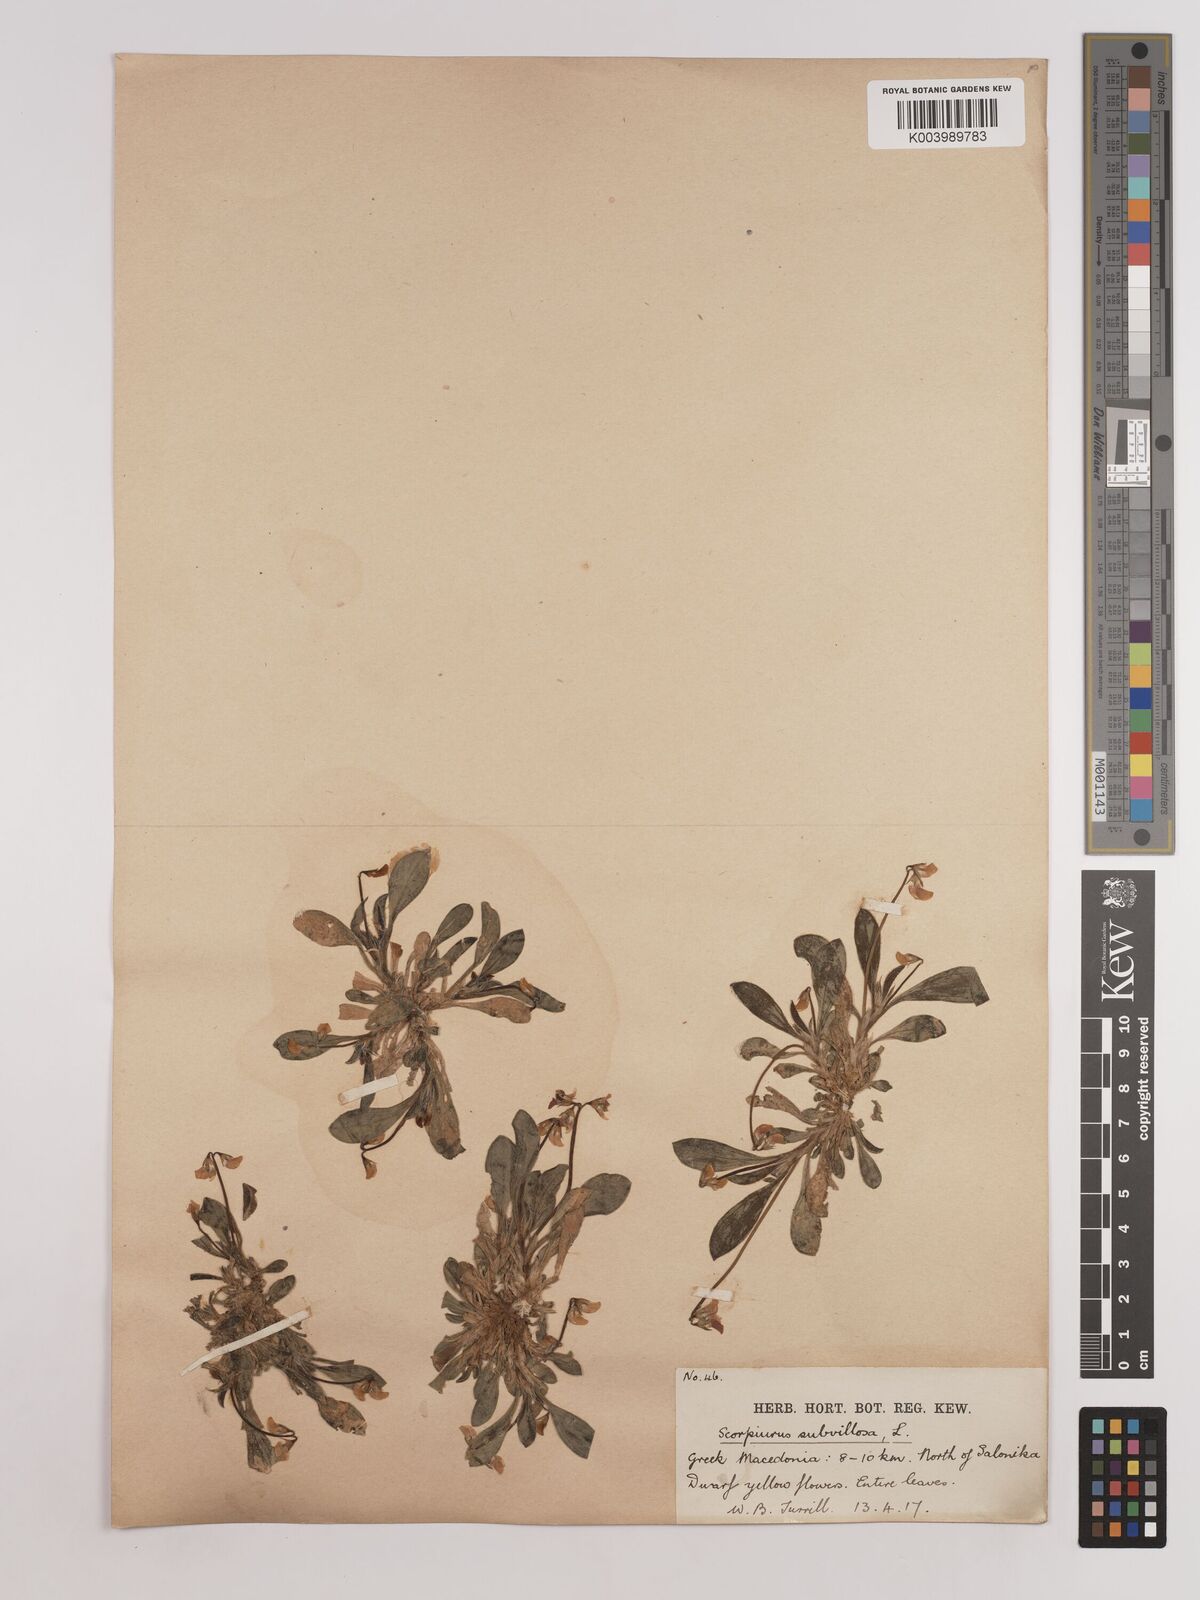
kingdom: Plantae
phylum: Tracheophyta
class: Magnoliopsida
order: Fabales
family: Fabaceae
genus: Scorpiurus
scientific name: Scorpiurus muricatus
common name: Caterpillar-plant
